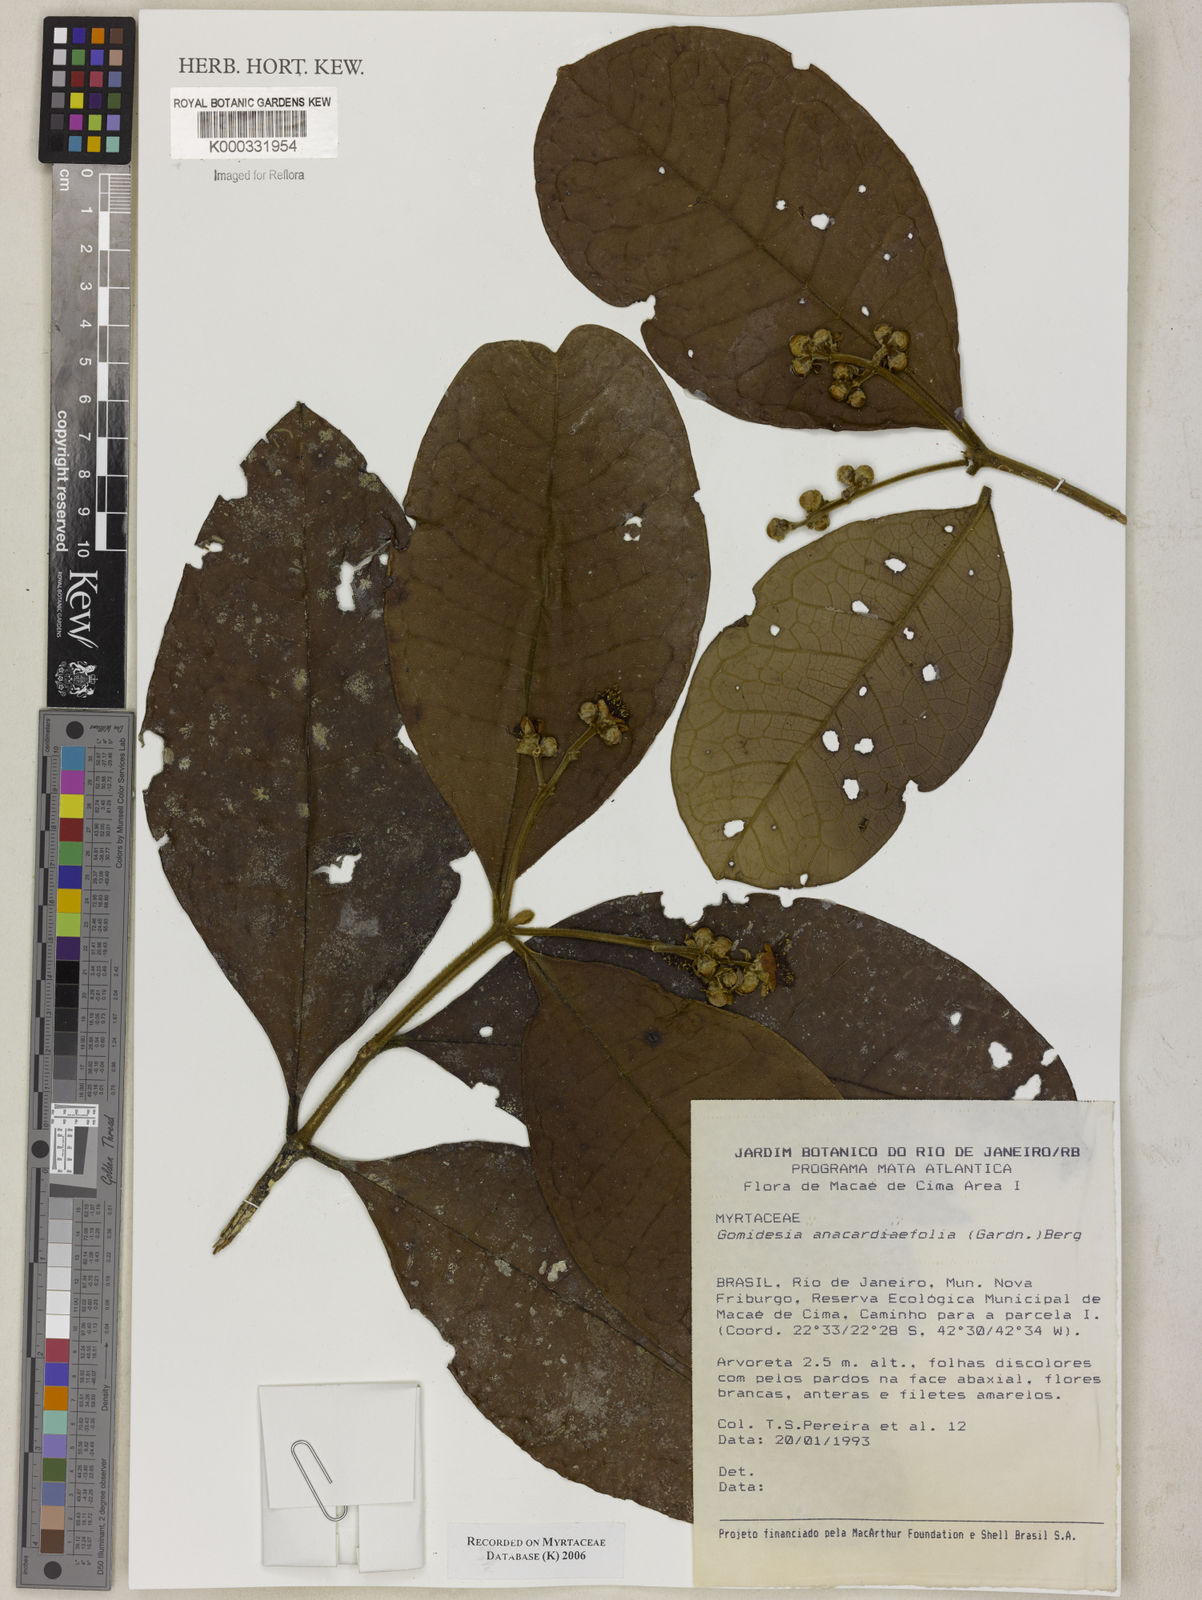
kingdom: Plantae
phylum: Tracheophyta
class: Magnoliopsida
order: Myrtales
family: Myrtaceae
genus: Myrcia
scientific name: Myrcia anacardiifolia
